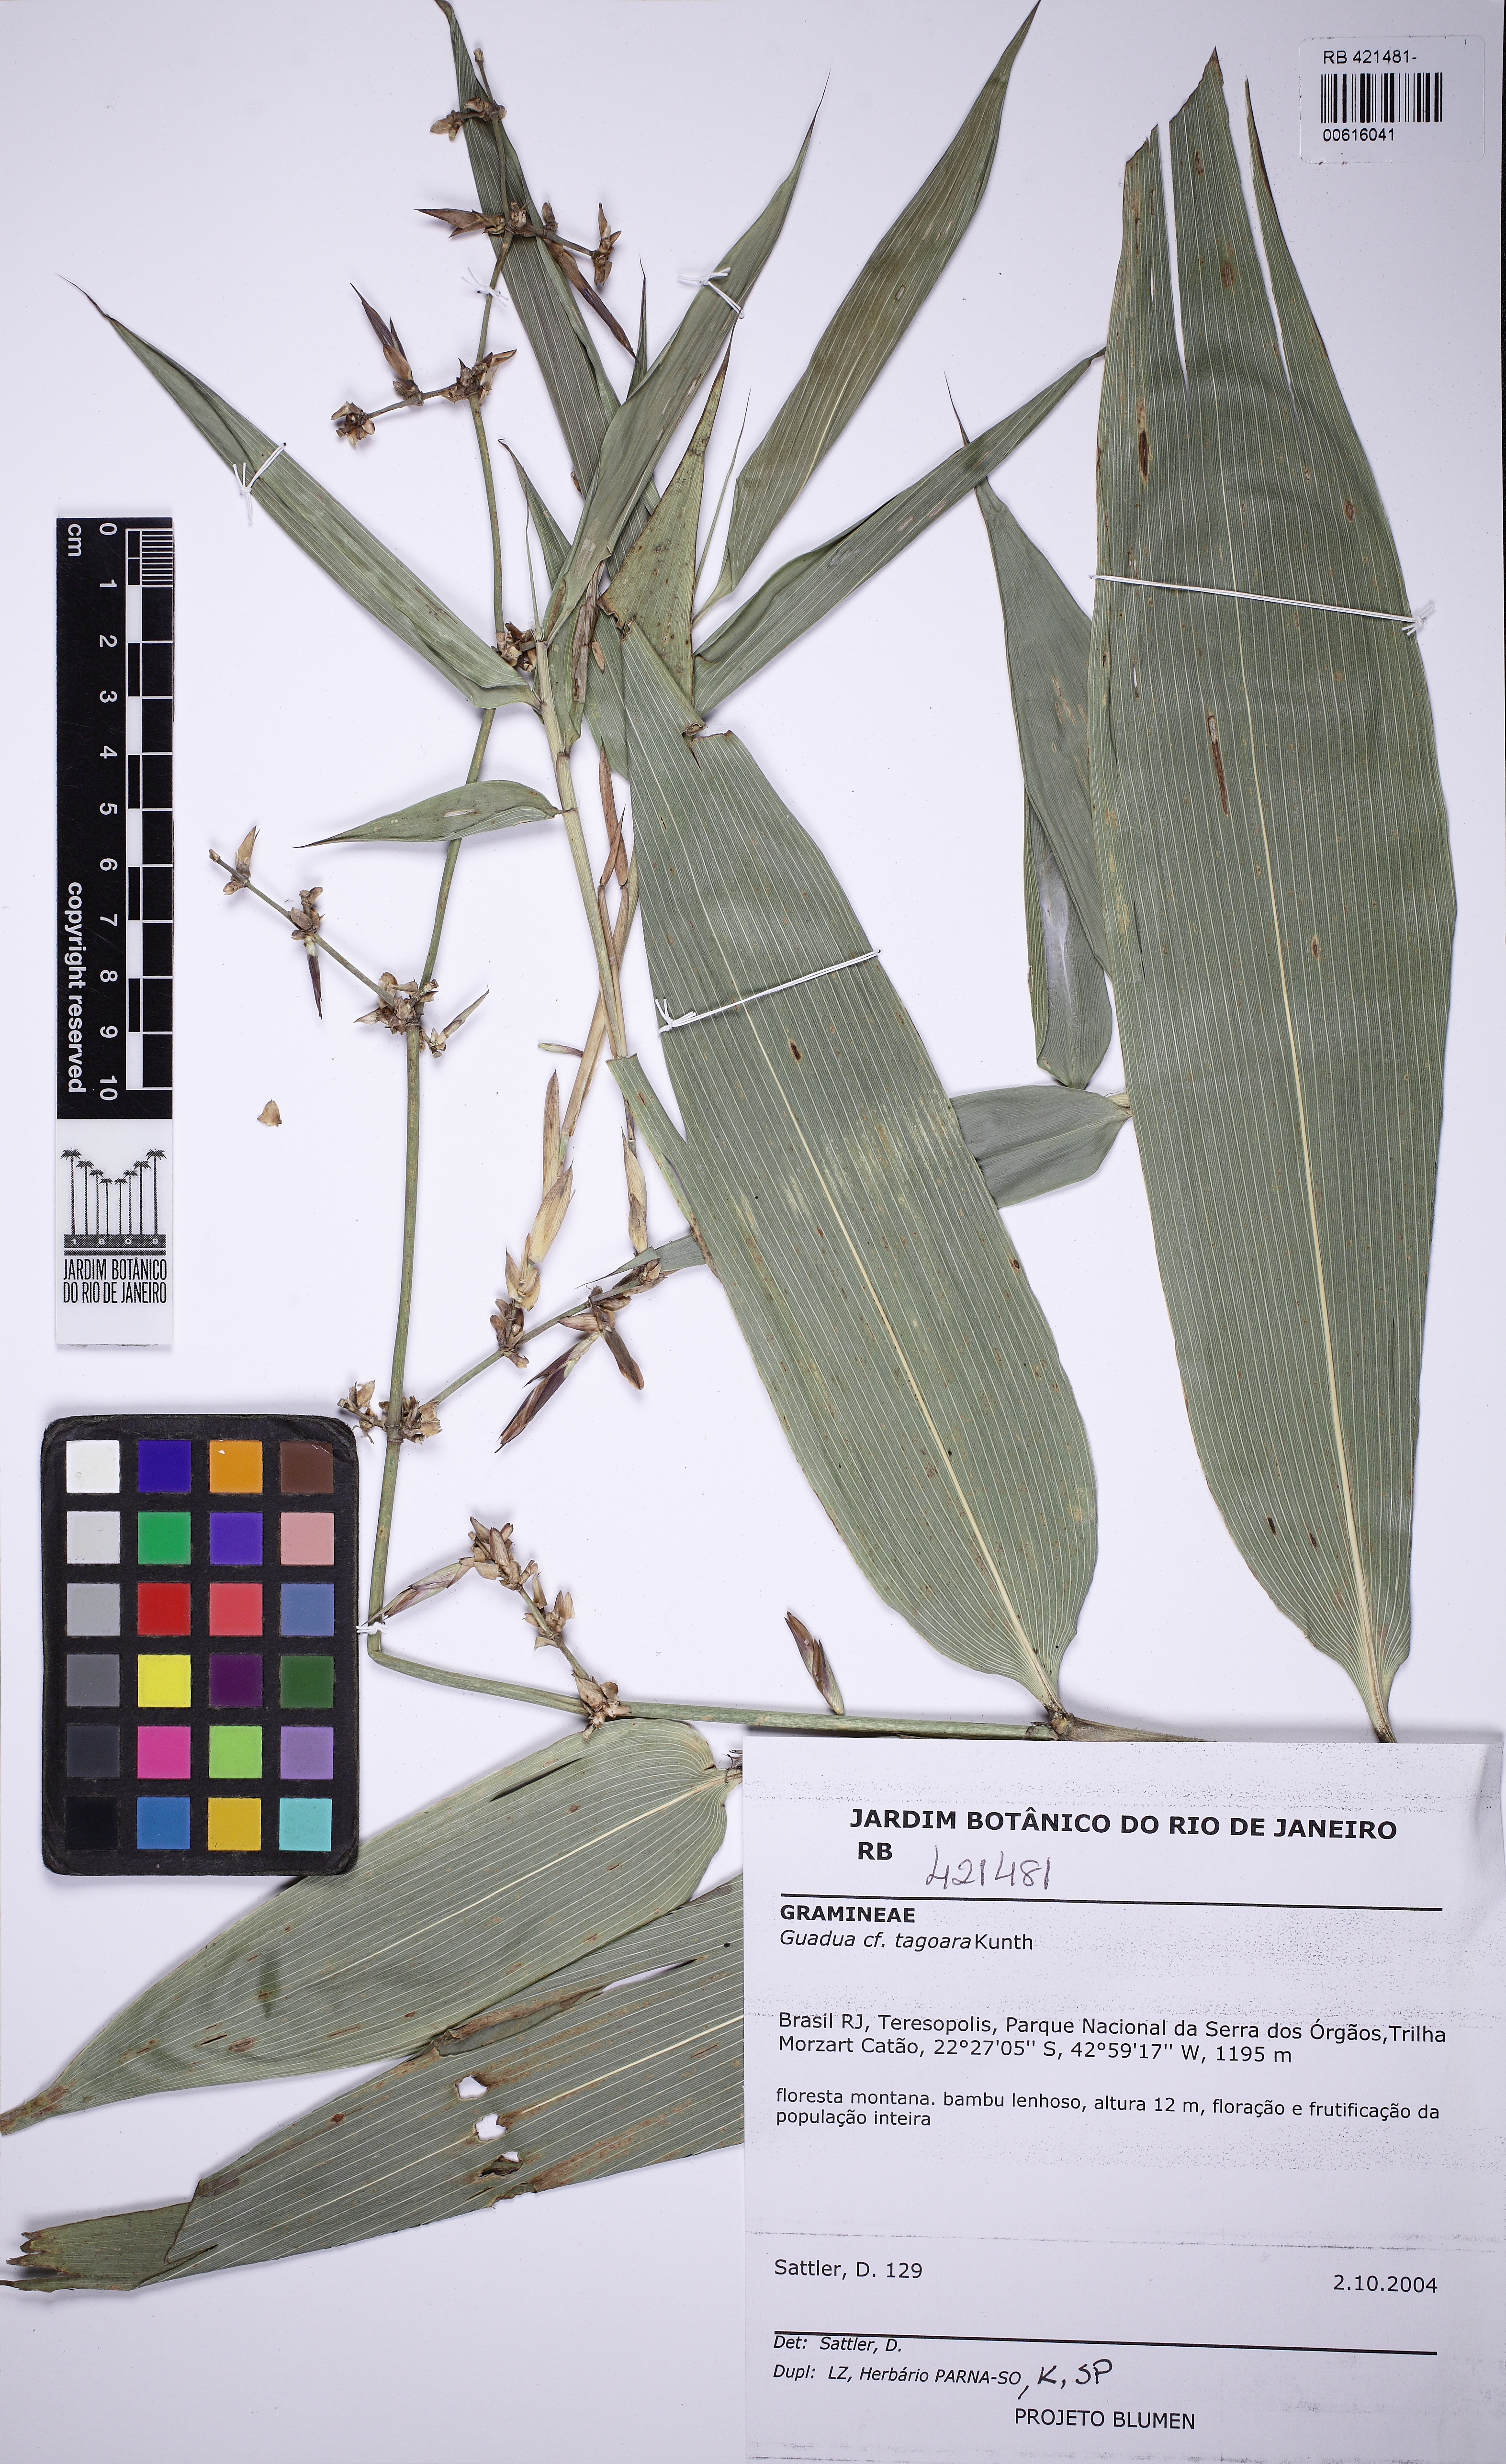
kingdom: Plantae
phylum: Tracheophyta
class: Liliopsida
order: Poales
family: Poaceae
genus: Guadua
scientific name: Guadua tagoara
